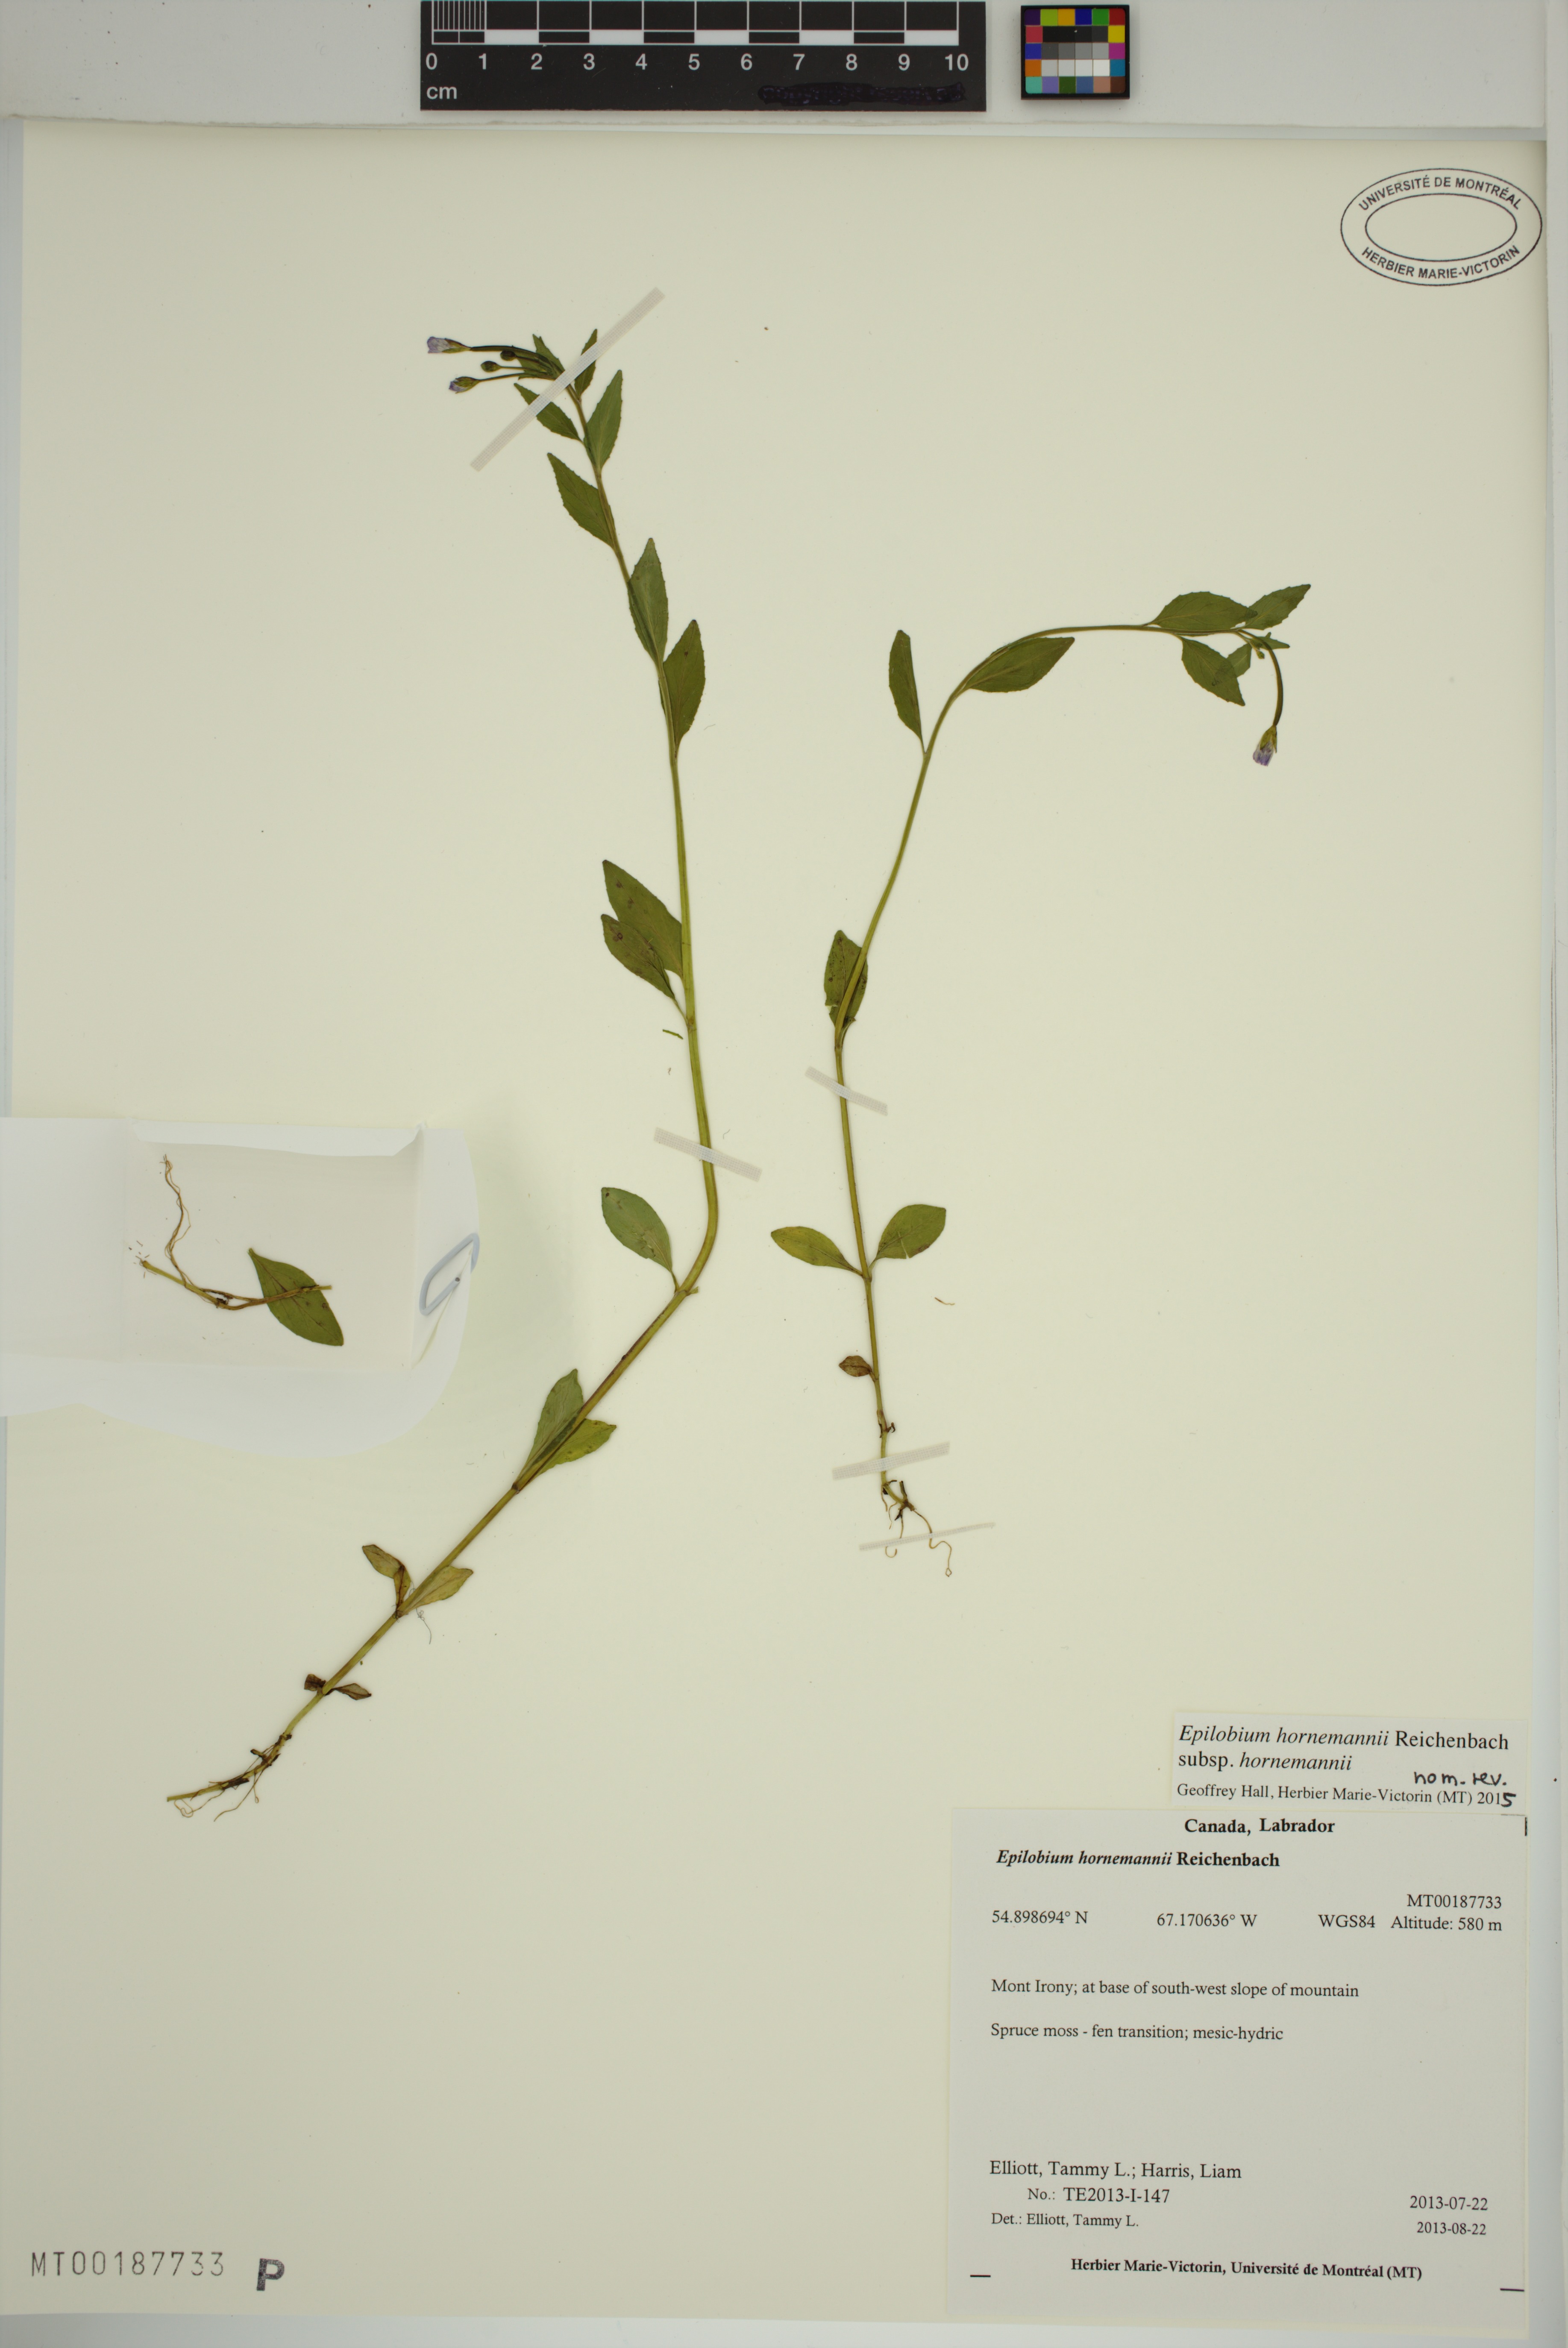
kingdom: Plantae
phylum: Tracheophyta
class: Magnoliopsida
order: Myrtales
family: Onagraceae
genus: Epilobium
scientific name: Epilobium hornemannii
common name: Hornemann's willowherb
